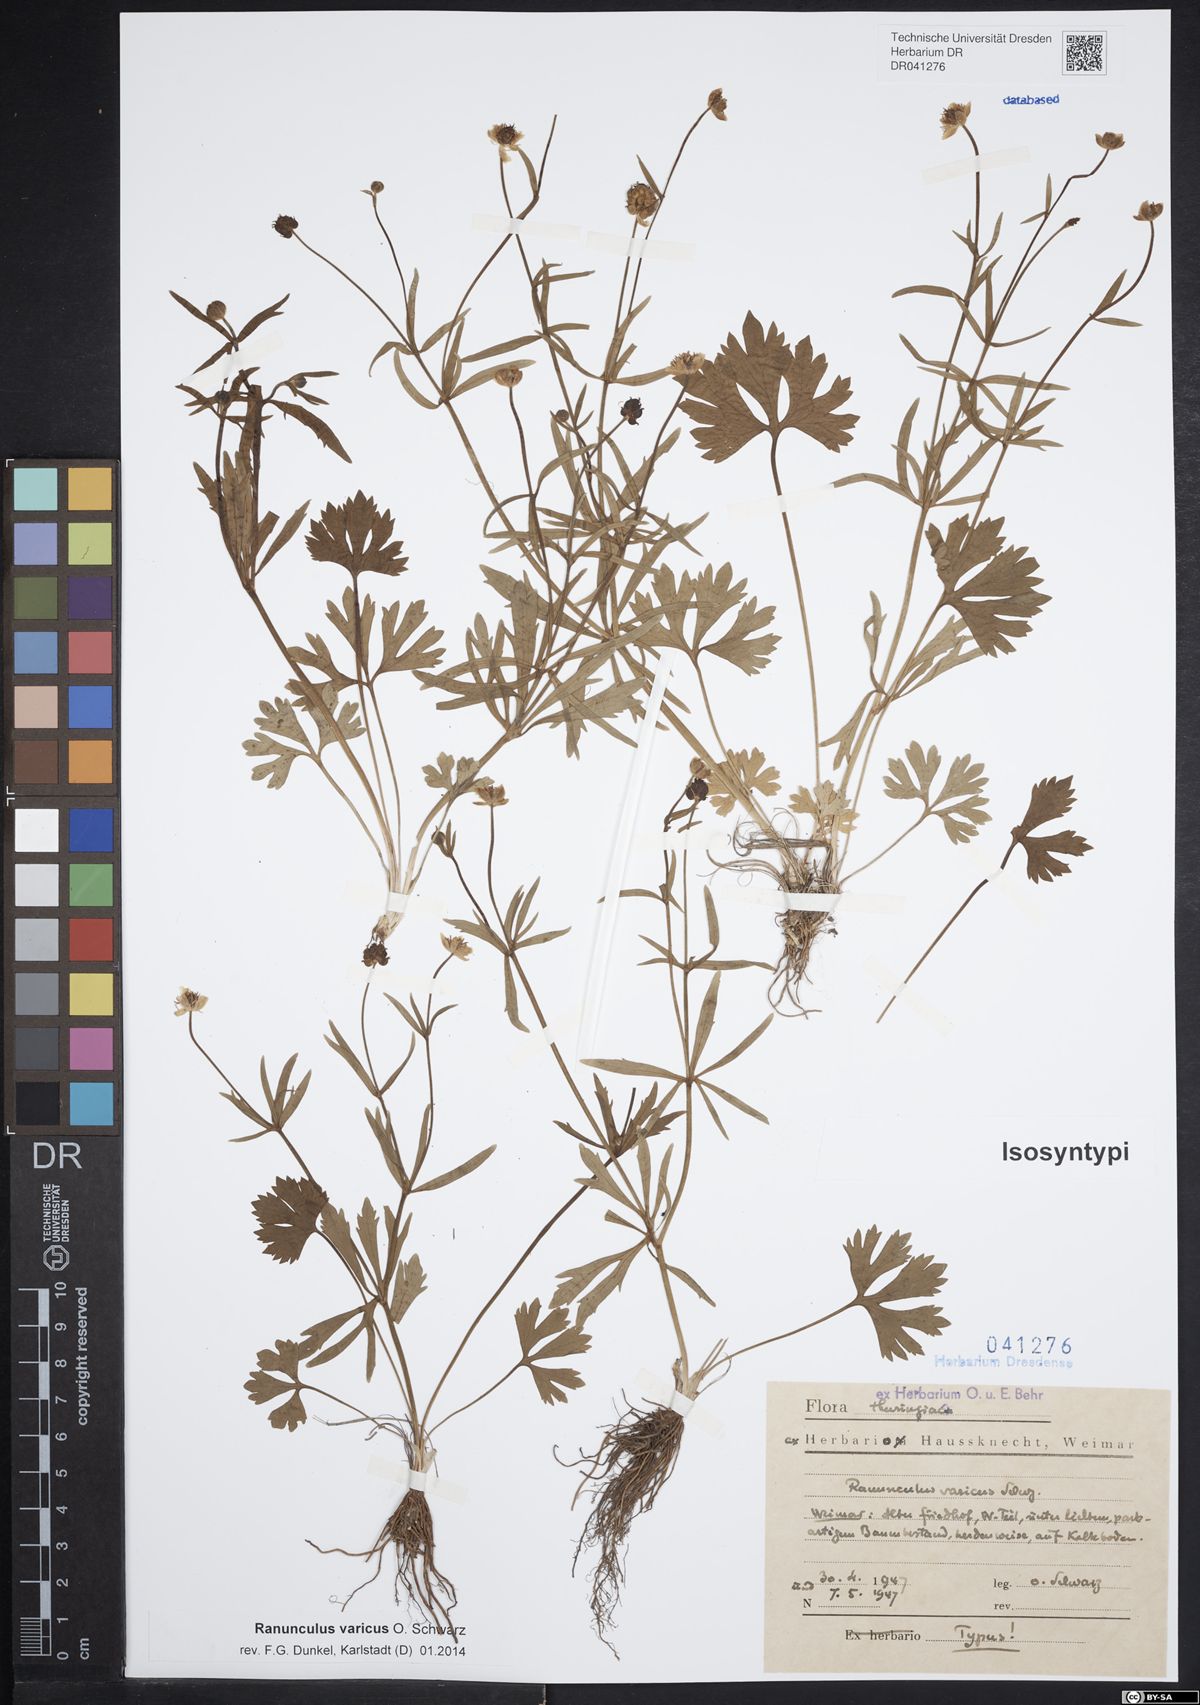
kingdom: Plantae
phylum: Tracheophyta
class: Magnoliopsida
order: Ranunculales
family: Ranunculaceae
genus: Ranunculus
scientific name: Ranunculus varicus
